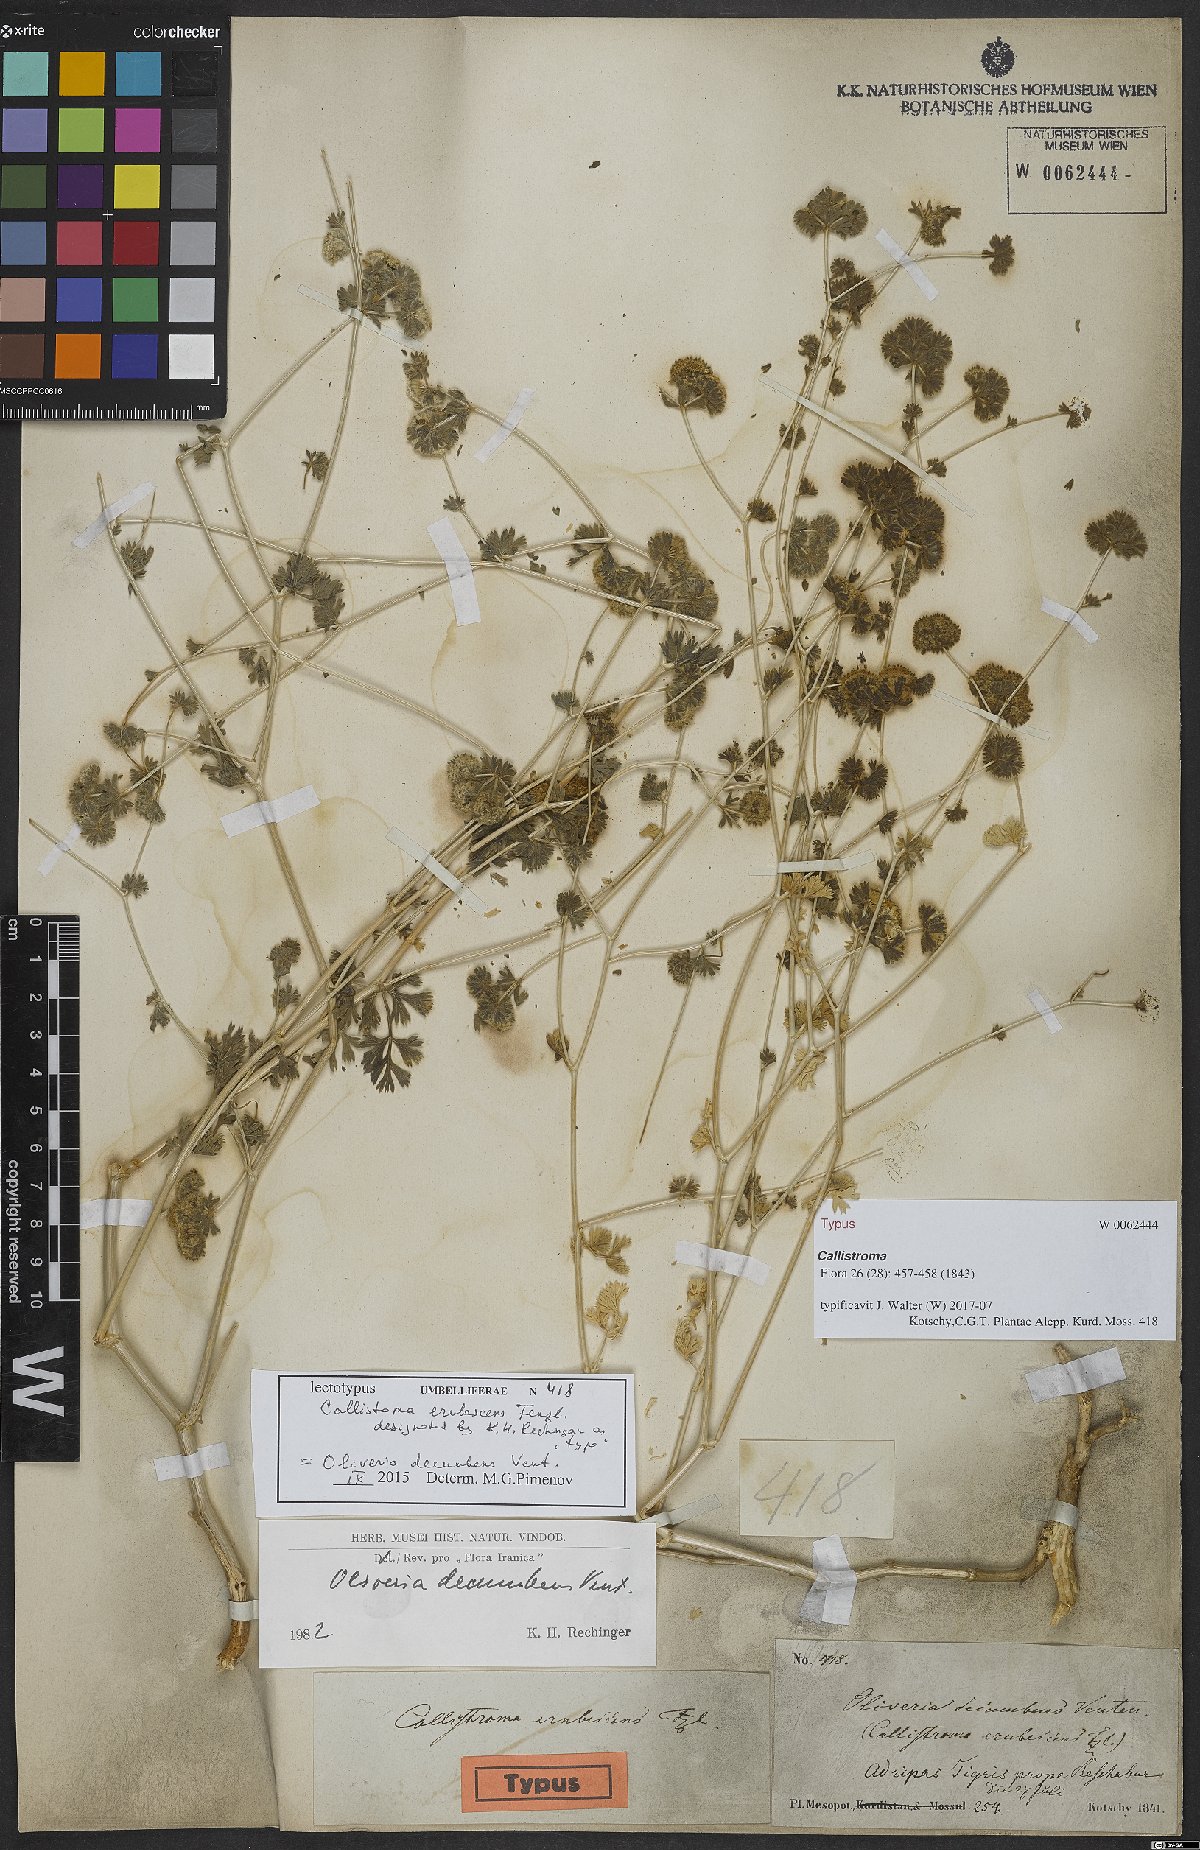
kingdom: Plantae
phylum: Tracheophyta
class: Magnoliopsida
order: Apiales
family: Apiaceae
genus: Oliveria
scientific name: Oliveria decumbens
